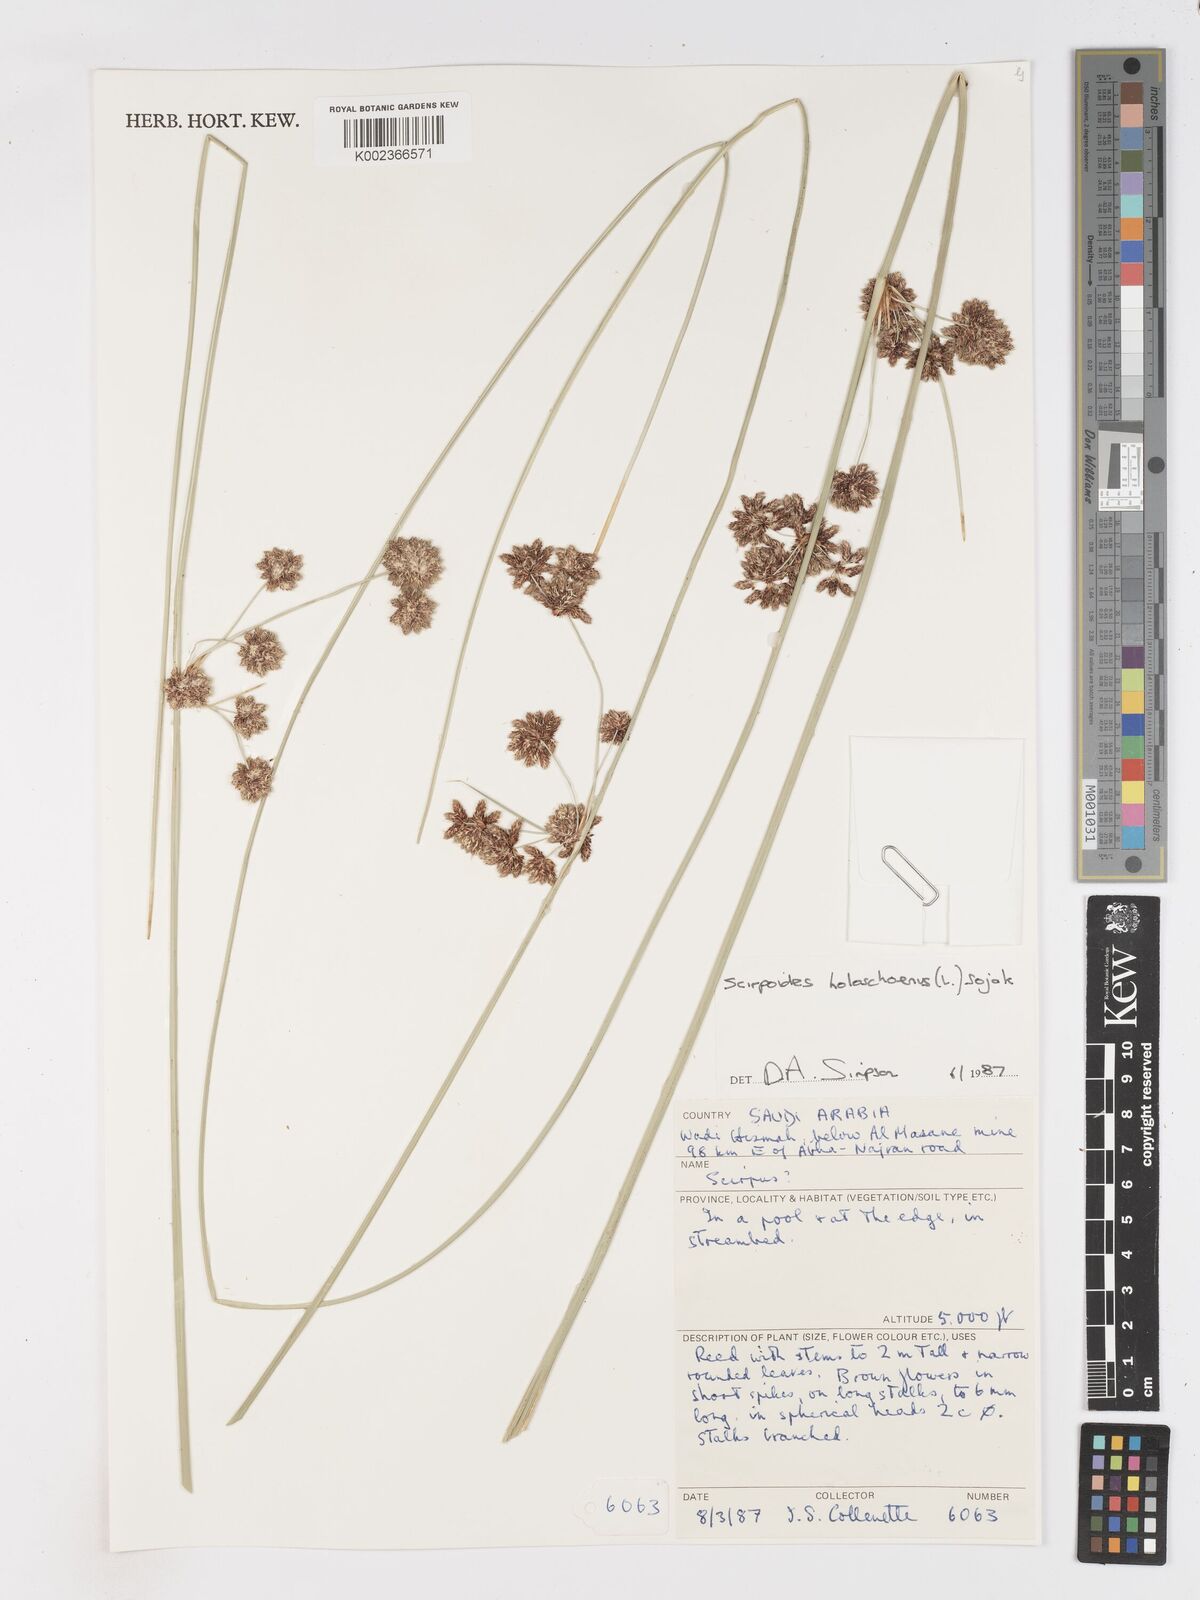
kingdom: Plantae
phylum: Tracheophyta
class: Liliopsida
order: Poales
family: Cyperaceae
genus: Scirpoides
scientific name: Scirpoides holoschoenus
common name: Round-headed club-rush
